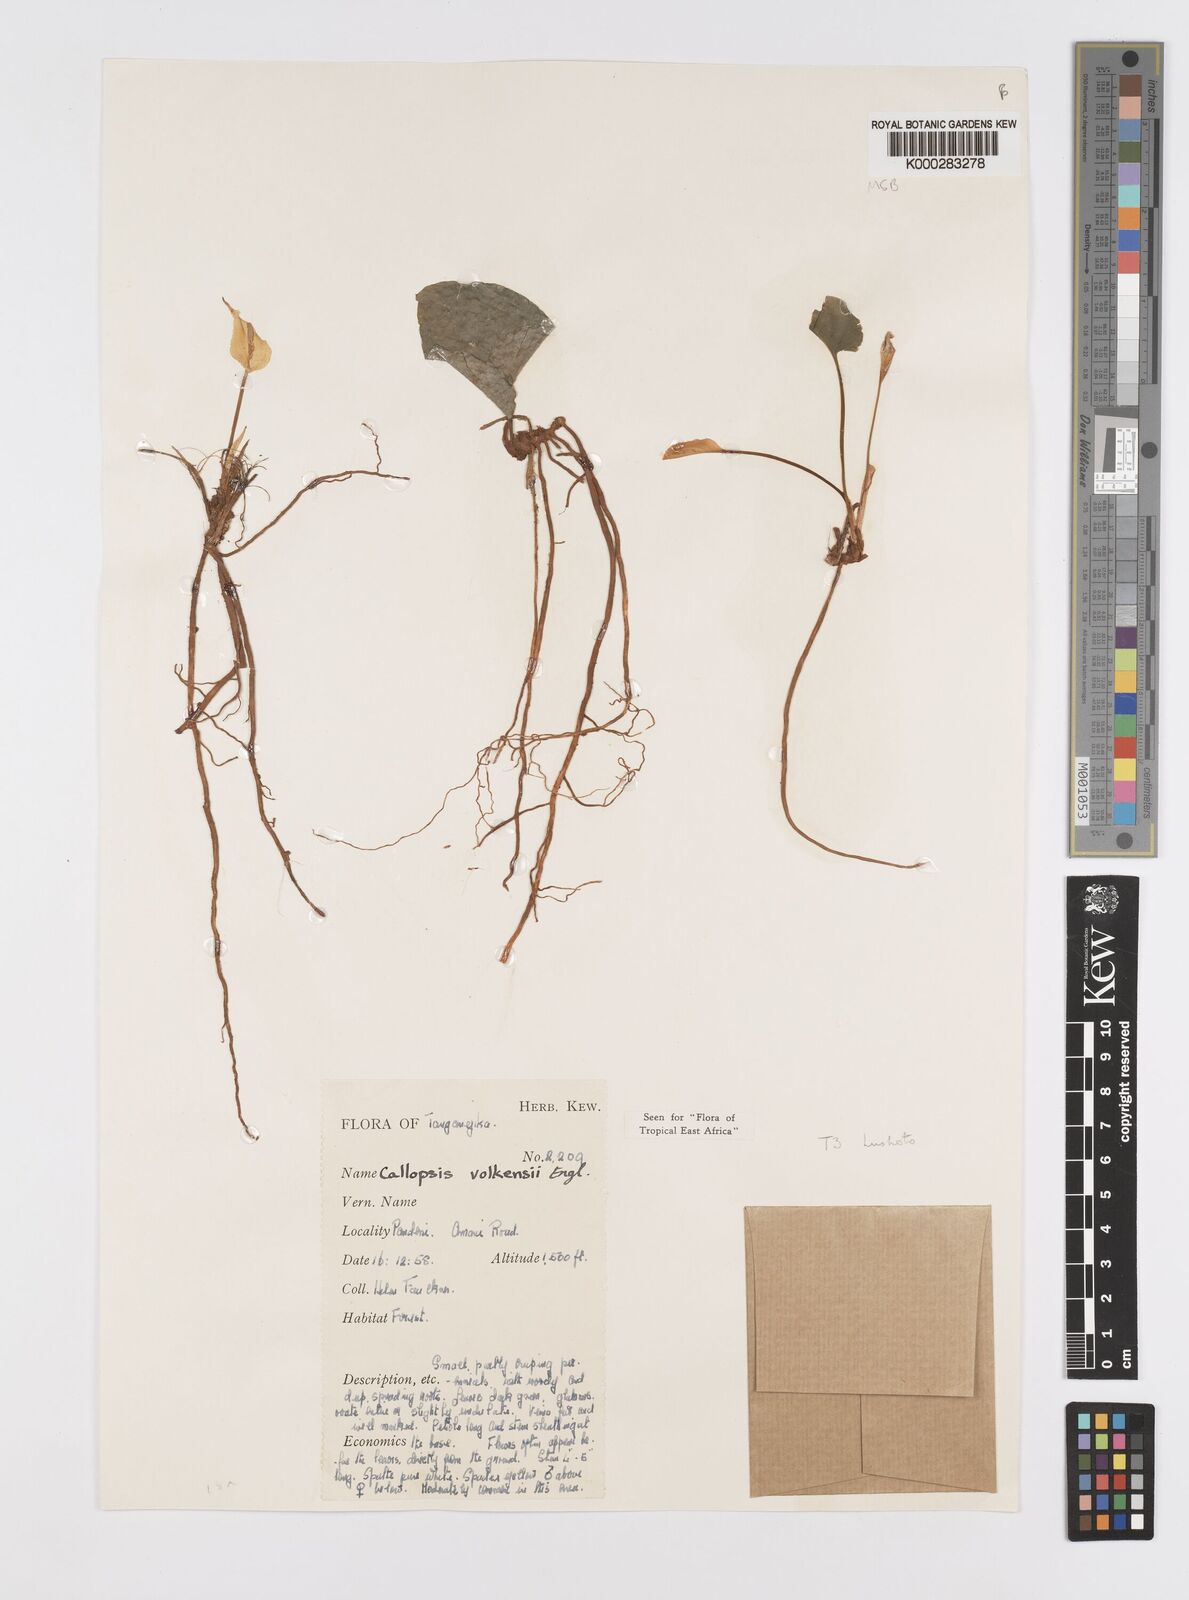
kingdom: Plantae
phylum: Tracheophyta
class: Liliopsida
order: Alismatales
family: Araceae
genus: Callopsis
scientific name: Callopsis volkensii
